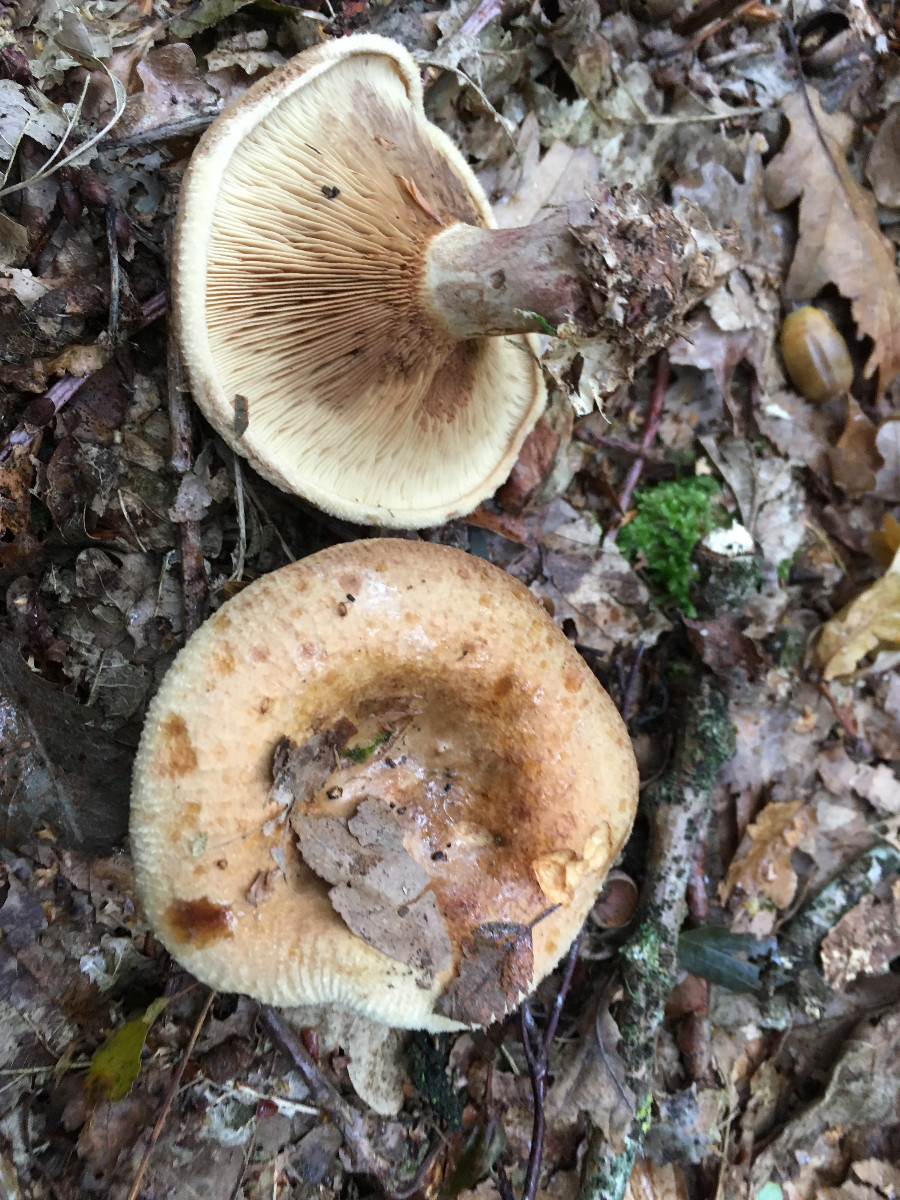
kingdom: Fungi
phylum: Basidiomycota
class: Agaricomycetes
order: Boletales
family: Paxillaceae
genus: Paxillus
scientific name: Paxillus involutus
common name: almindelig netbladhat
